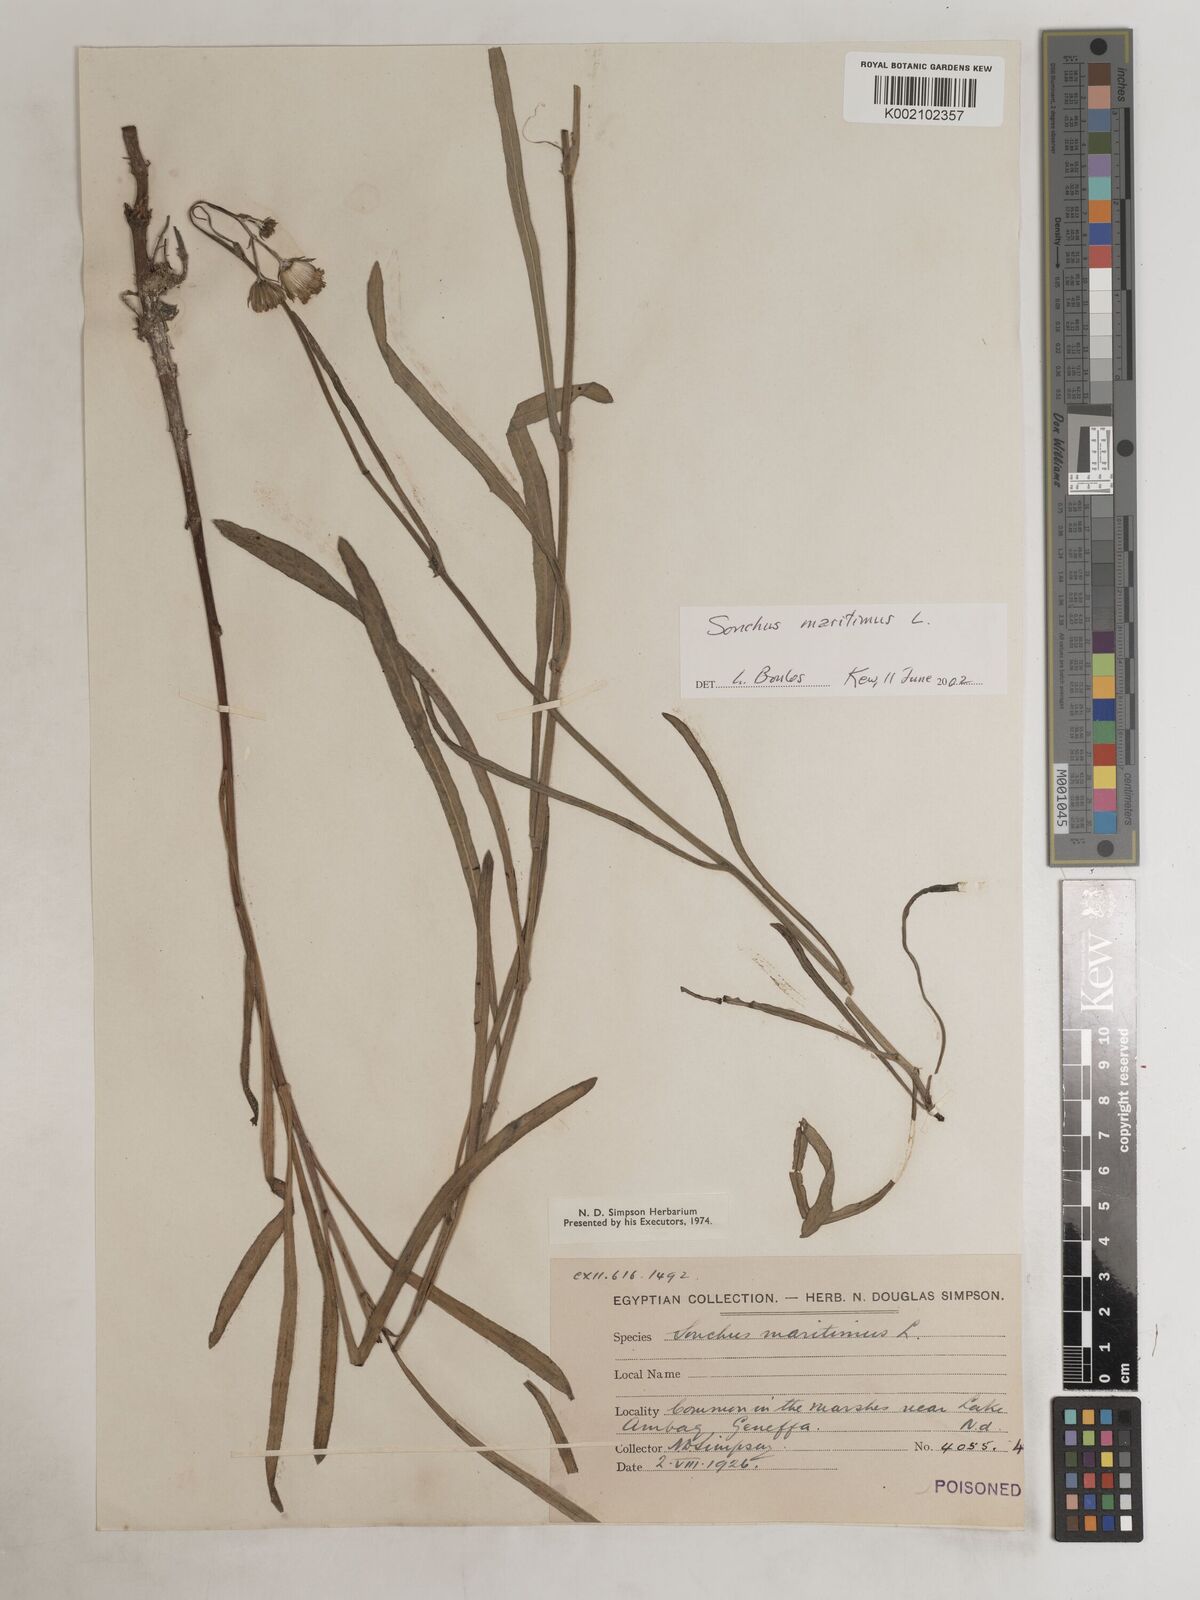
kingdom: Plantae
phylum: Tracheophyta
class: Magnoliopsida
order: Asterales
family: Asteraceae
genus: Sonchus
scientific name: Sonchus maritimus
